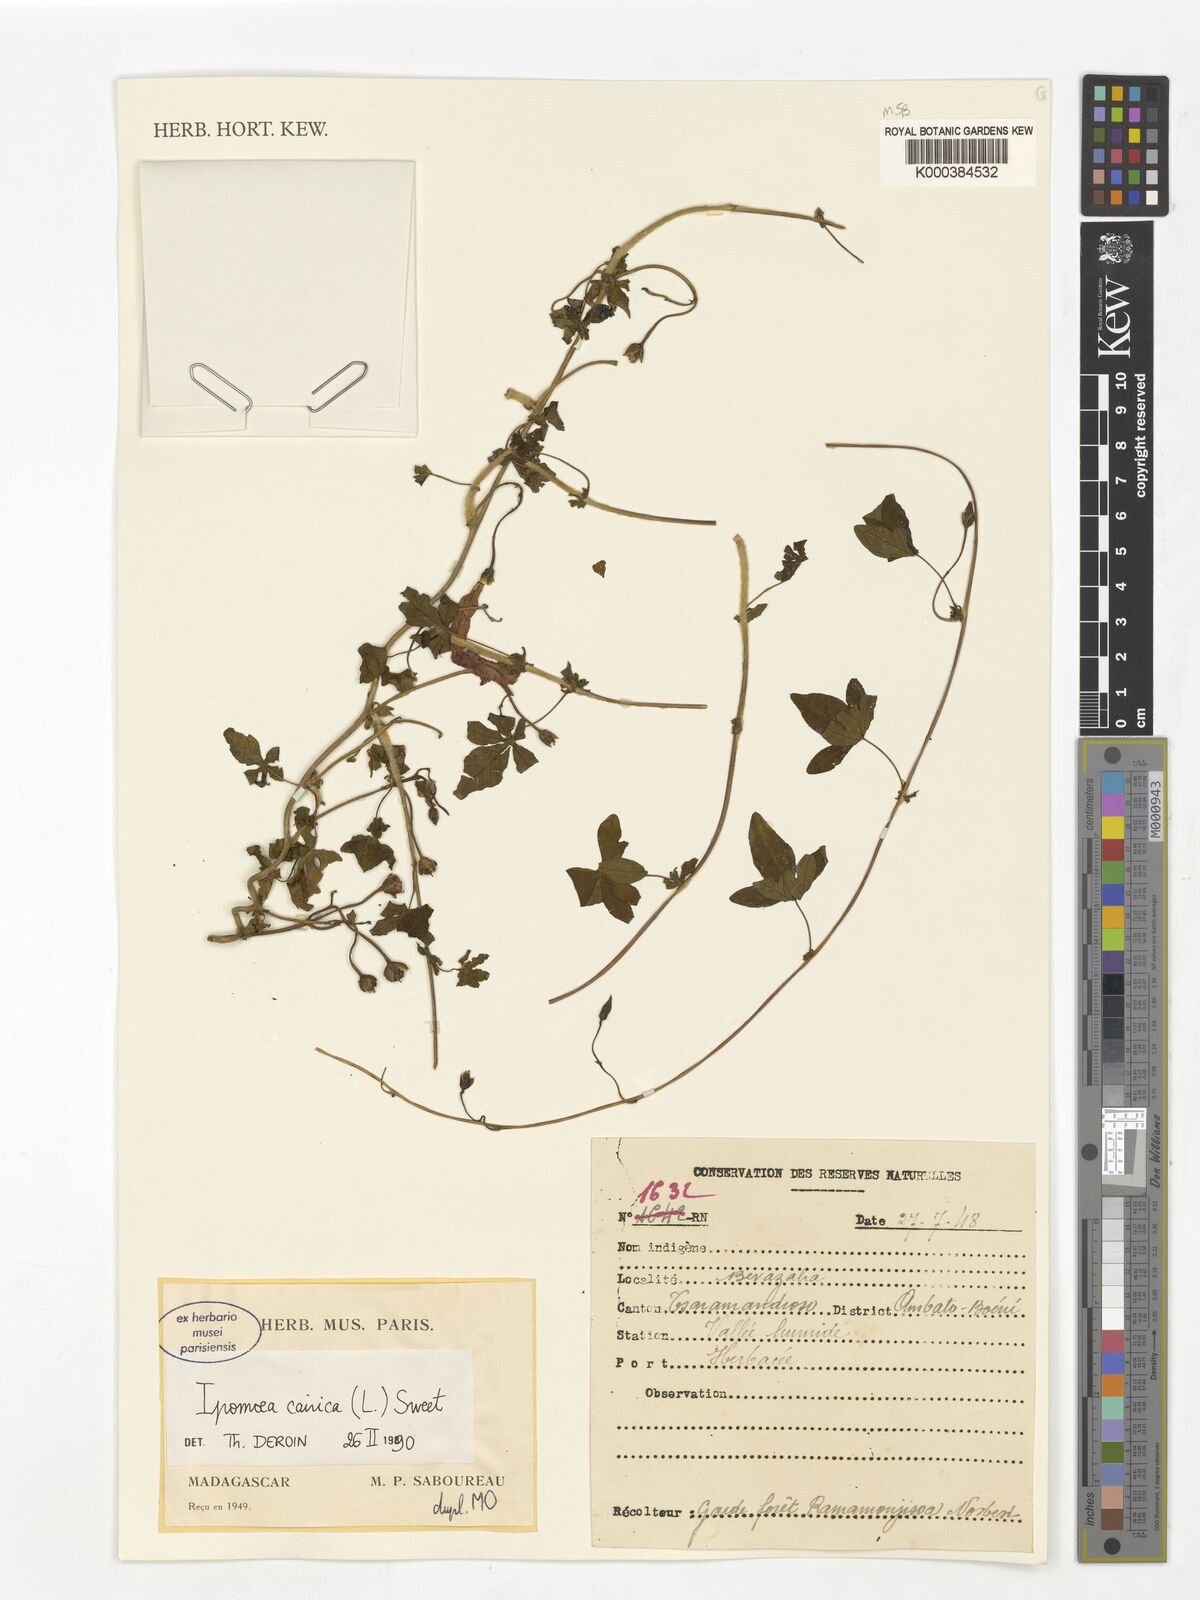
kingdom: Plantae
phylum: Tracheophyta
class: Magnoliopsida
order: Solanales
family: Convolvulaceae
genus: Ipomoea
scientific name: Ipomoea cairica
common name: Mile a minute vine
